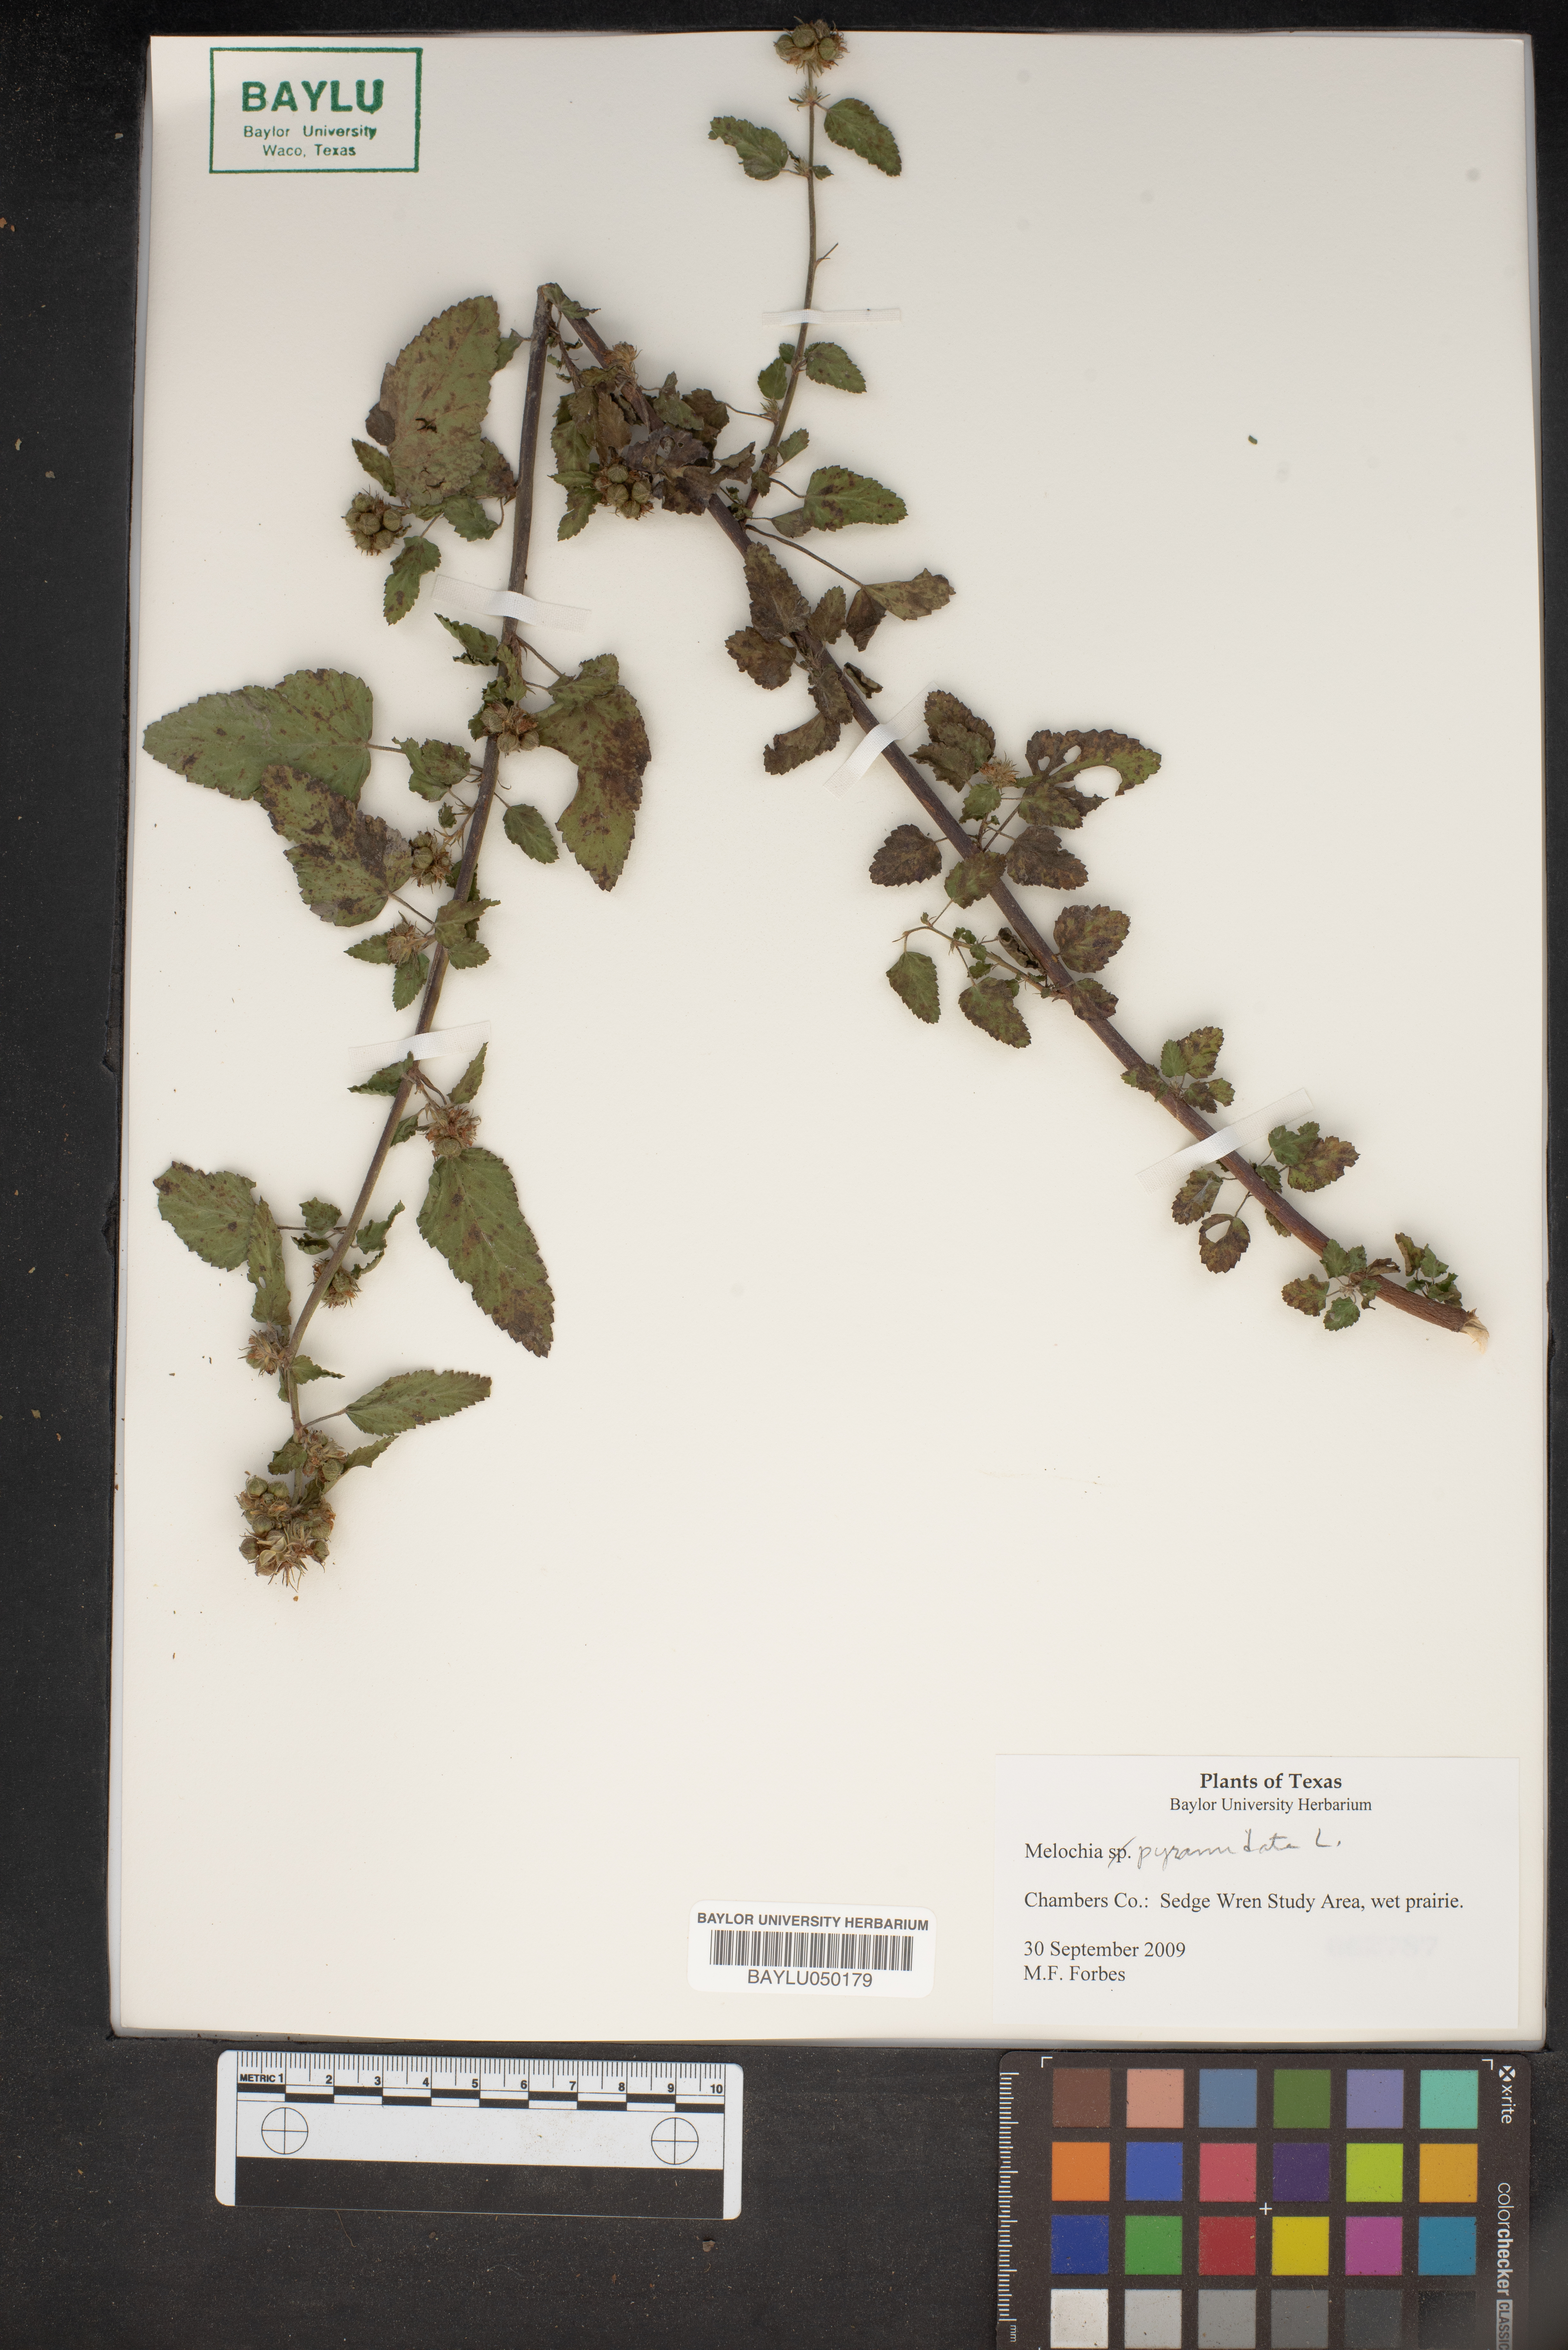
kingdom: Plantae
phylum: Tracheophyta
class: Magnoliopsida
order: Malvales
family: Malvaceae
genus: Melochia
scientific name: Melochia pyramidata
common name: Pyramidflower
